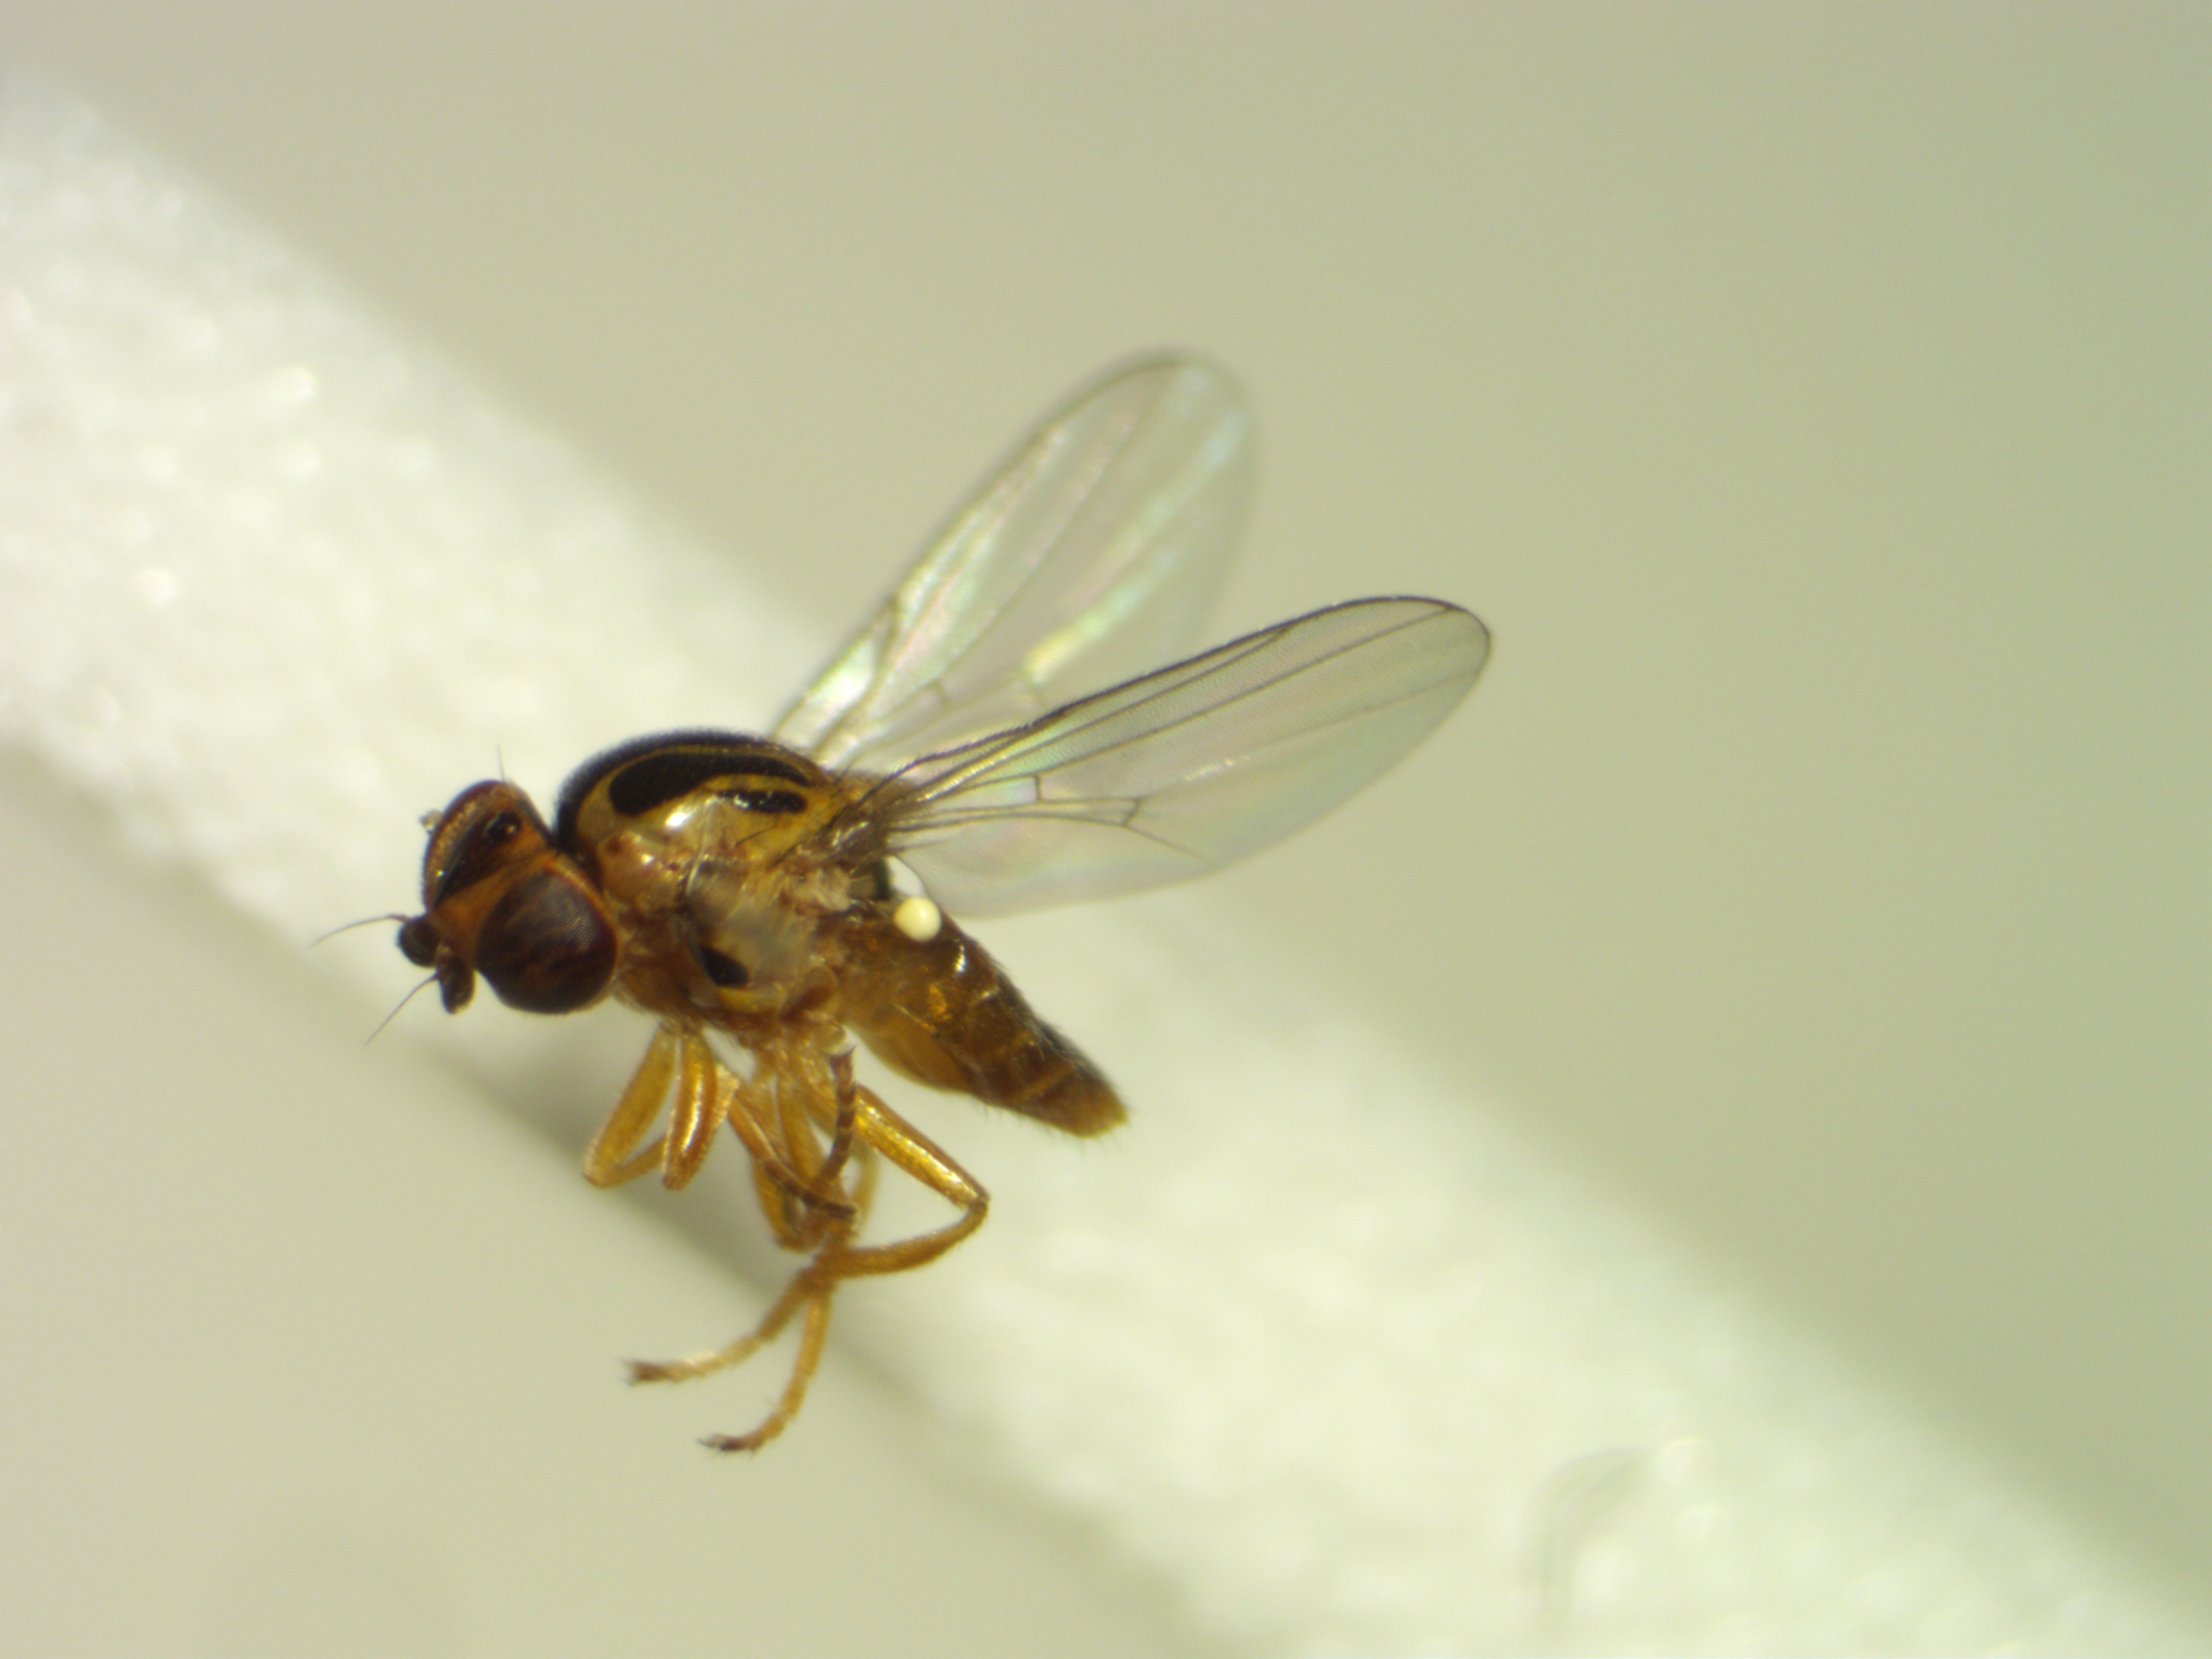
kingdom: Animalia
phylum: Arthropoda
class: Insecta
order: Diptera
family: Chloropidae
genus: Thaumatomyia
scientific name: Thaumatomyia notata
